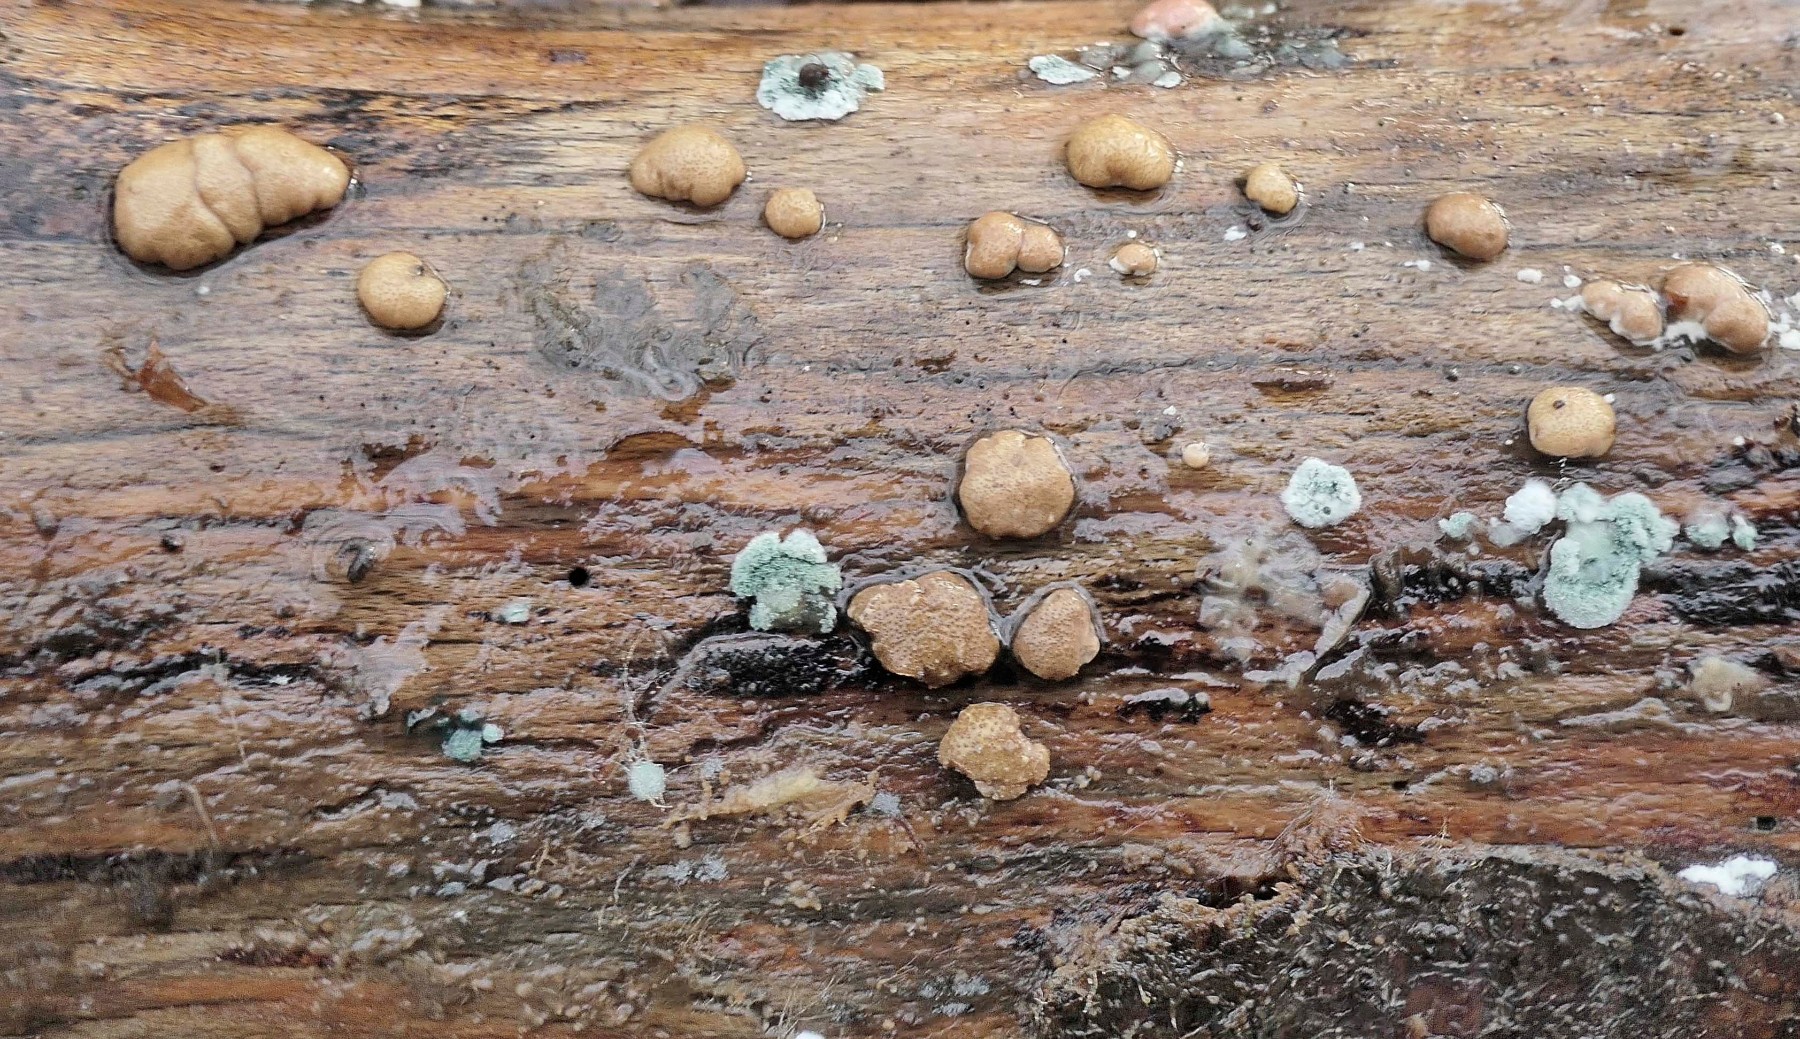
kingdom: Fungi
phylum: Ascomycota
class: Sordariomycetes
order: Hypocreales
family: Hypocreaceae
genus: Trichoderma
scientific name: Trichoderma europaeum
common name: rosabrun kødkerne
